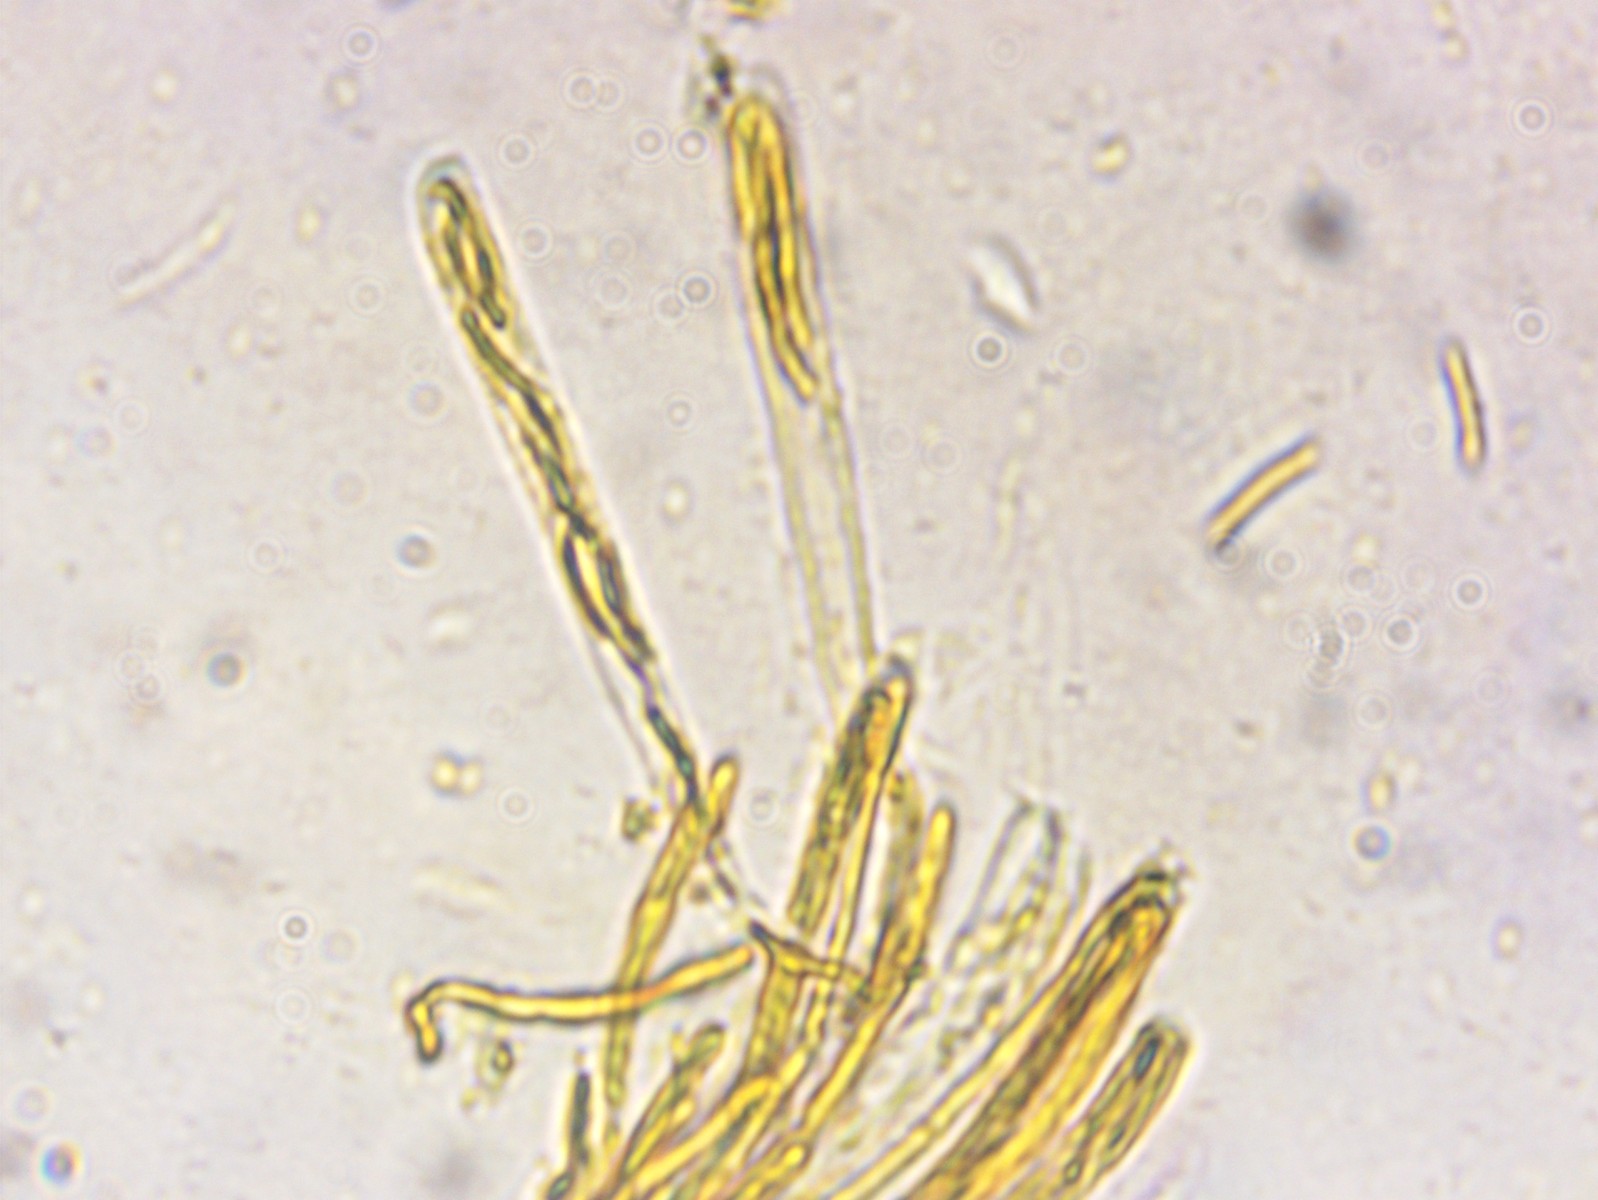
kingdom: Fungi
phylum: Ascomycota
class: Leotiomycetes
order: Helotiales
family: Sclerotiniaceae
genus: Myriosclerotinia
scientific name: Myriosclerotinia curreyana
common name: siv-knoldskive
